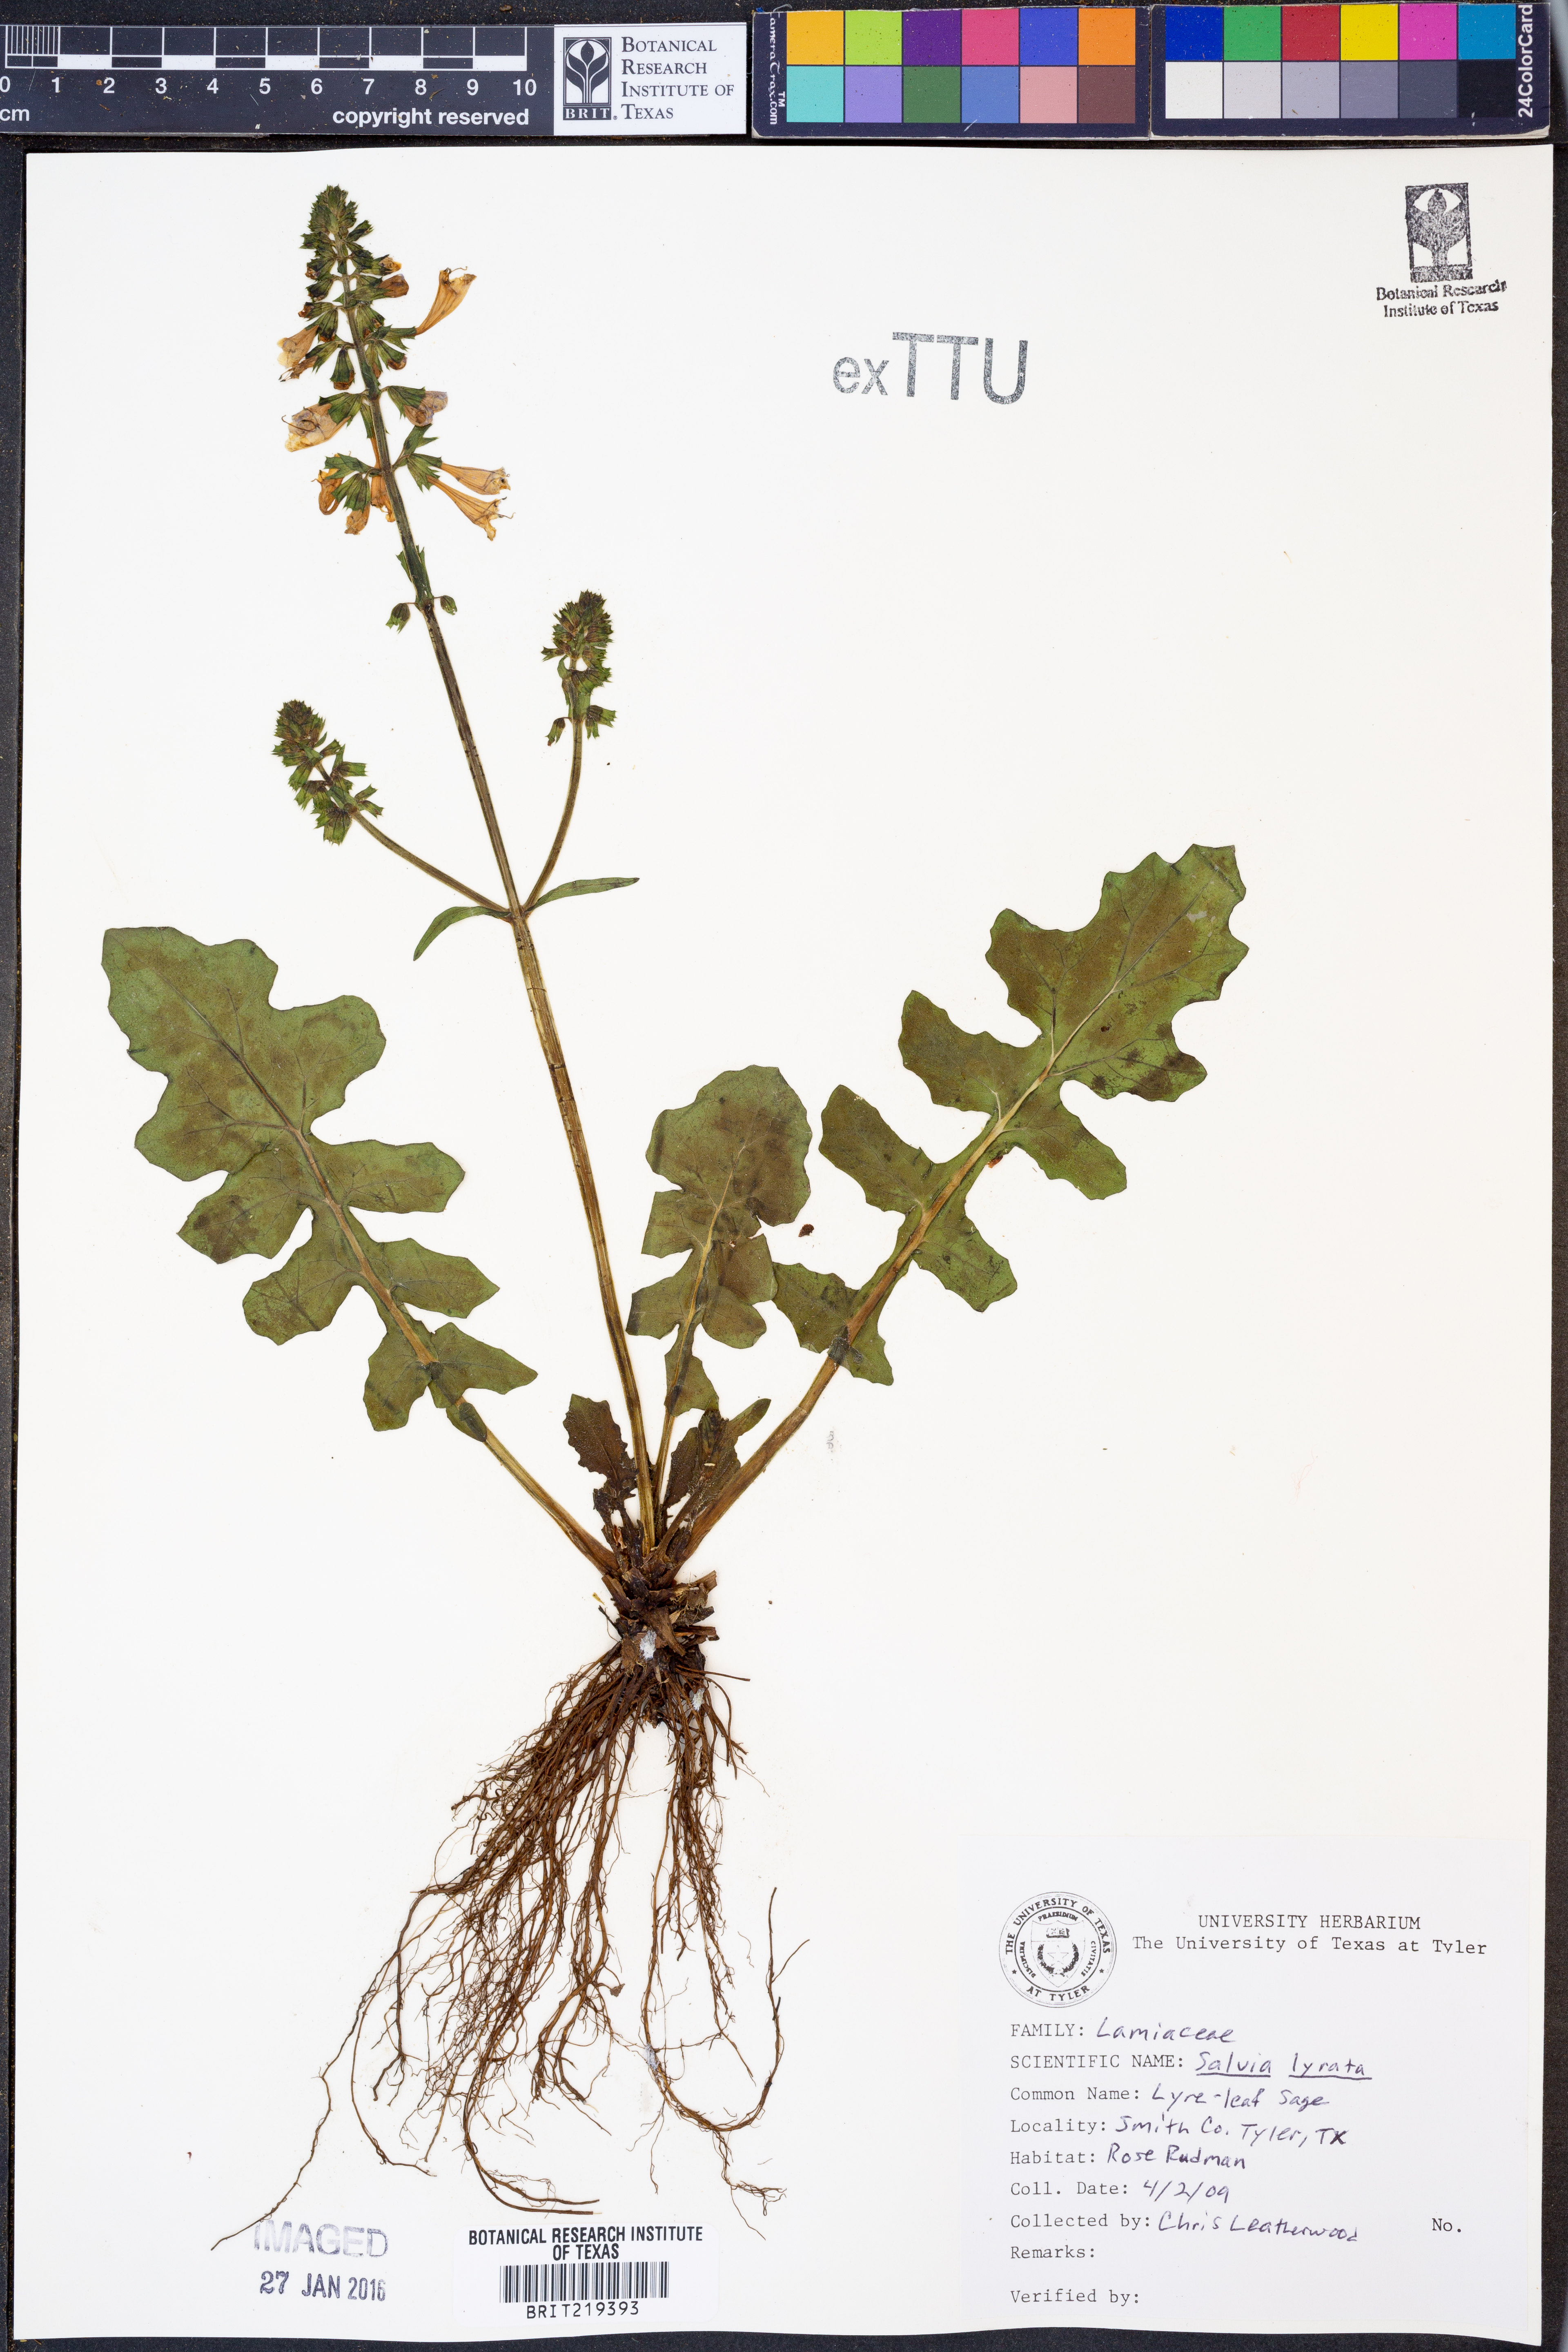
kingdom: Plantae
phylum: Tracheophyta
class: Magnoliopsida
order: Lamiales
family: Lamiaceae
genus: Salvia
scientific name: Salvia lyrata
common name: Cancerweed
